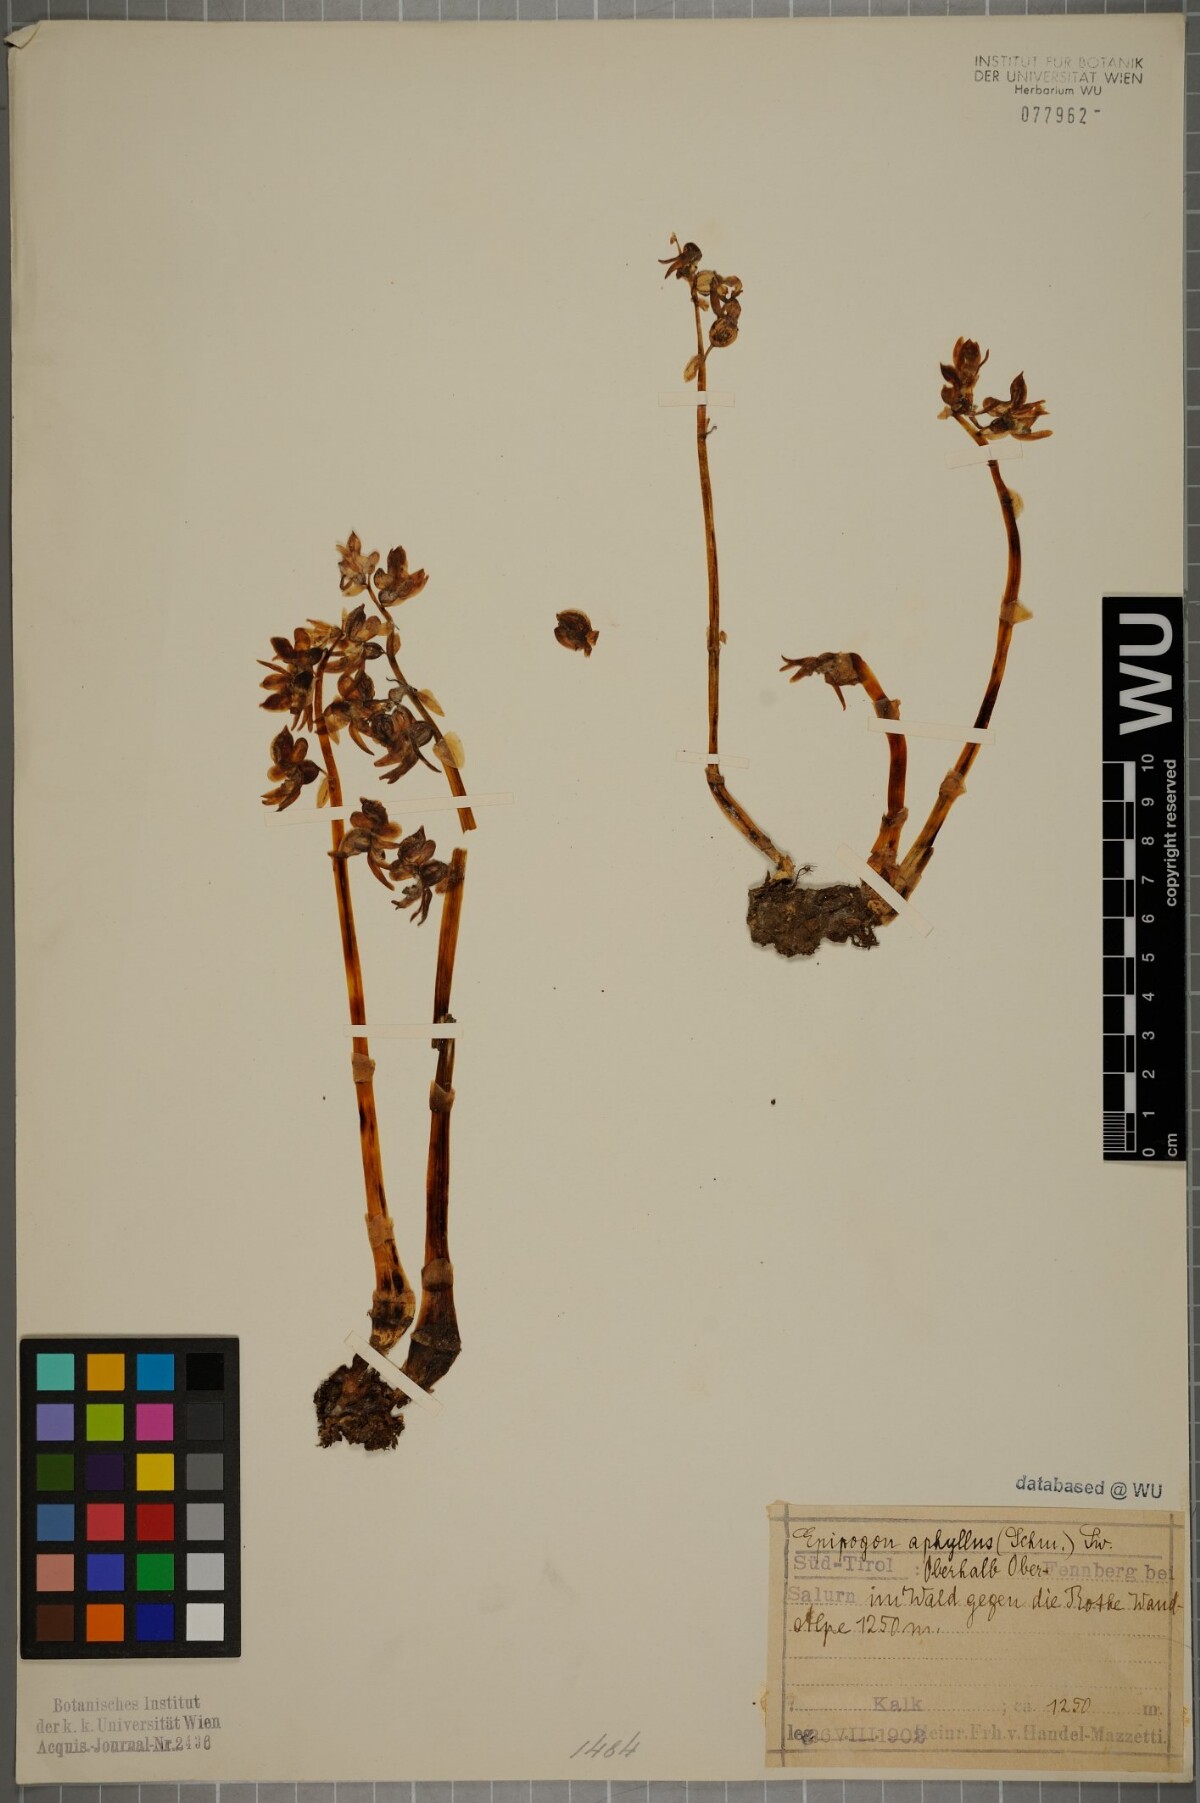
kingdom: Plantae
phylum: Tracheophyta
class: Liliopsida
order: Asparagales
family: Orchidaceae
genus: Epipogium
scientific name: Epipogium aphyllum
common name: Ghost orchid
